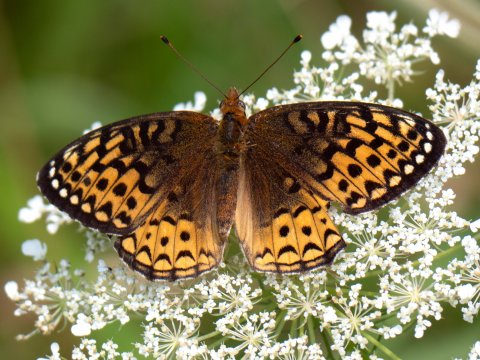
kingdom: Animalia
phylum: Arthropoda
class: Insecta
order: Lepidoptera
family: Nymphalidae
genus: Speyeria
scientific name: Speyeria atlantis
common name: Atlantis Fritillary
